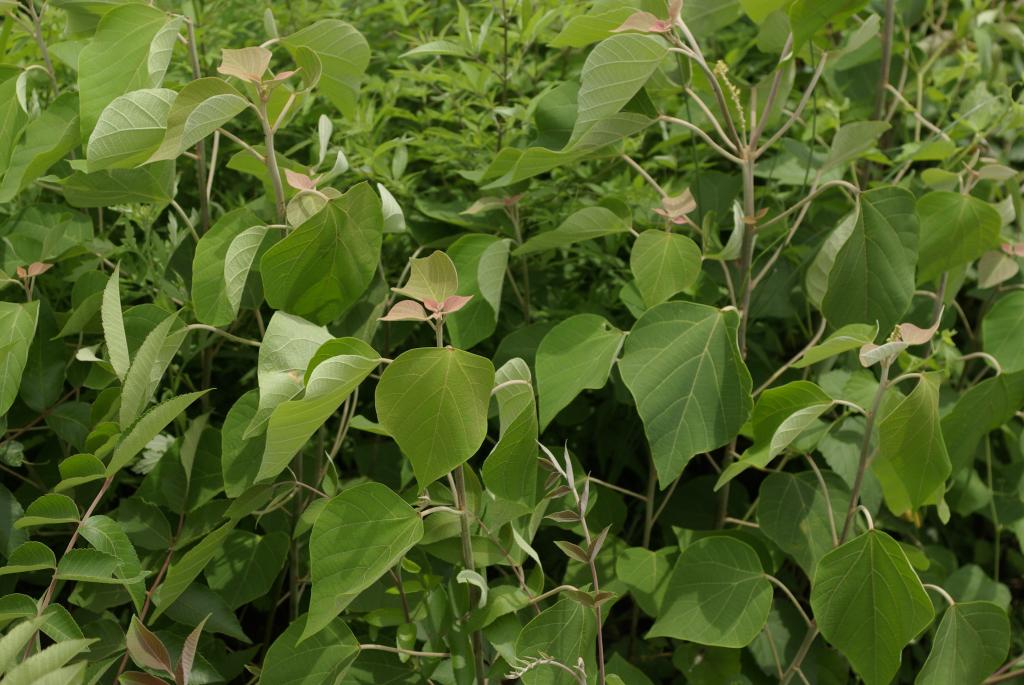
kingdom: Plantae
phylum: Tracheophyta
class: Magnoliopsida
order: Malpighiales
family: Euphorbiaceae
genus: Mallotus
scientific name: Mallotus japonicus
